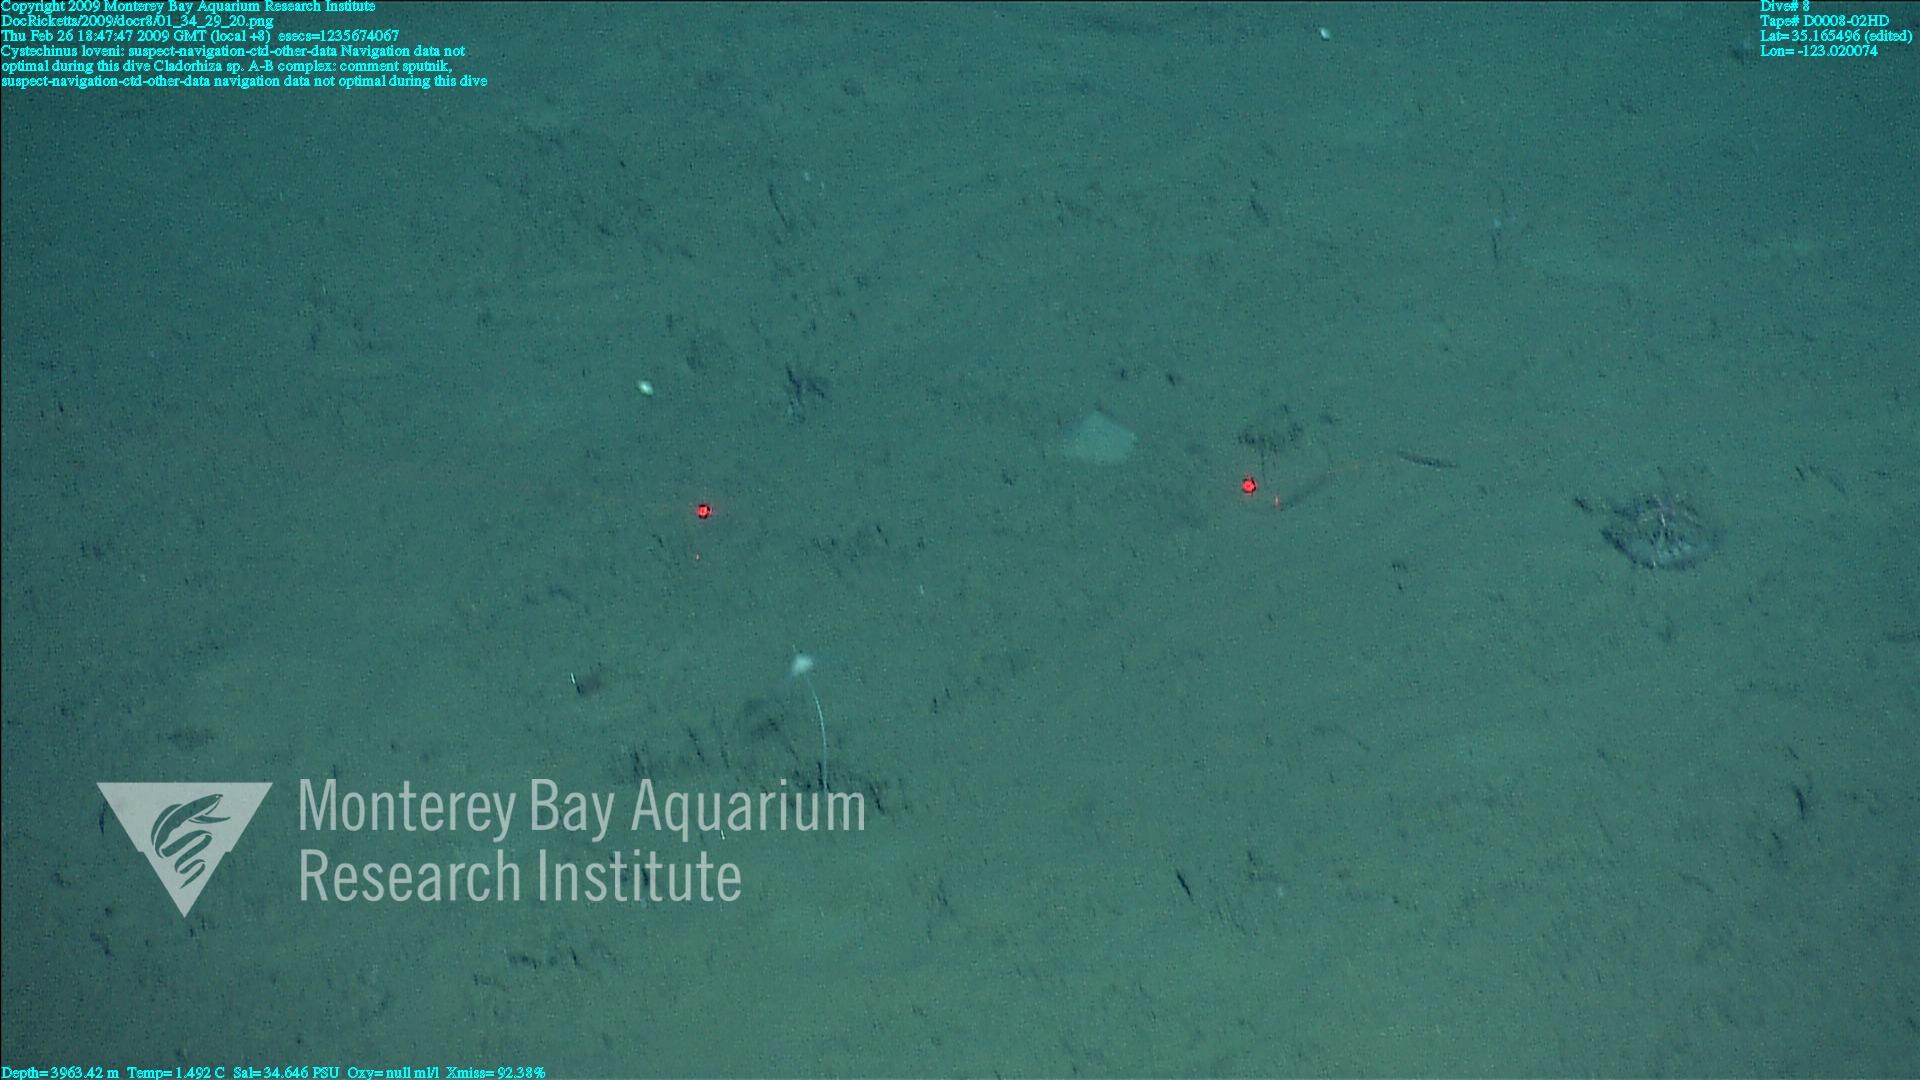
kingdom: Animalia
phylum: Porifera
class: Demospongiae
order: Poecilosclerida
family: Cladorhizidae
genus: Cladorhiza
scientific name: Cladorhiza
